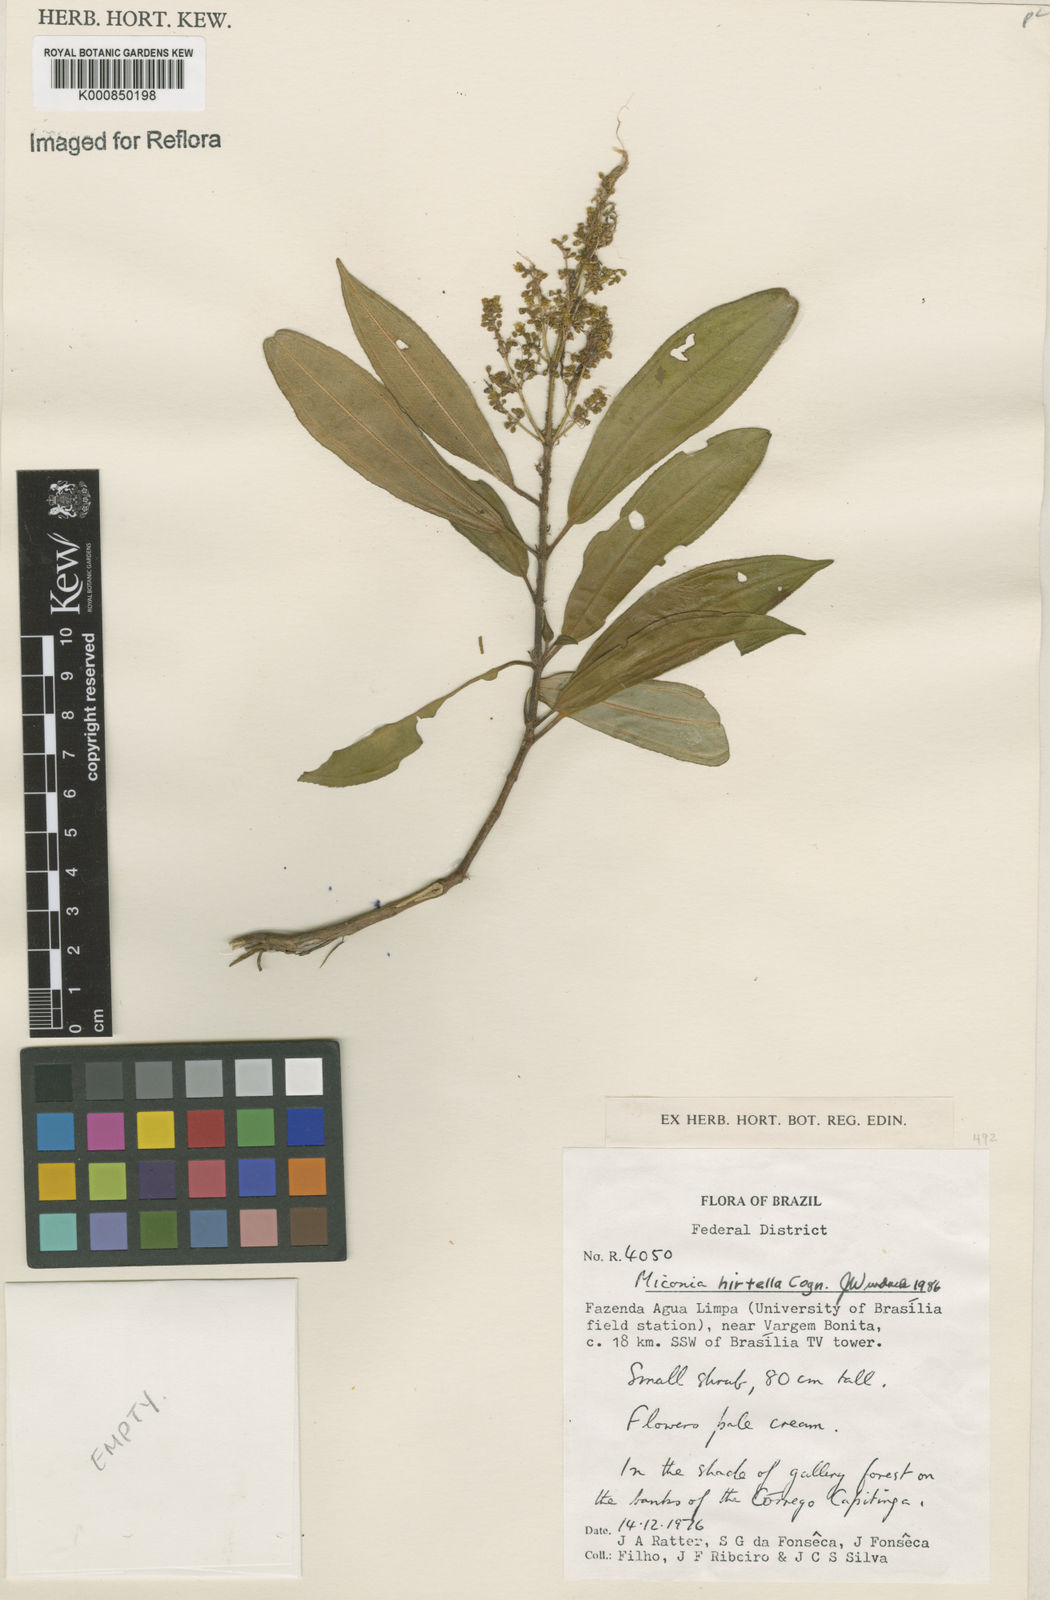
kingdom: Plantae
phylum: Tracheophyta
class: Magnoliopsida
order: Myrtales
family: Melastomataceae
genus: Miconia
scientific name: Miconia hirta
